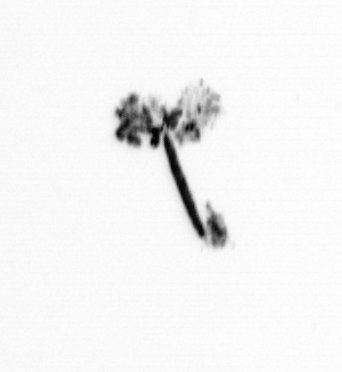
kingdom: Bacteria
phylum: Cyanobacteria
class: Cyanobacteriia
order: Cyanobacteriales
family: Microcoleaceae
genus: Trichodesmium
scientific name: Trichodesmium
